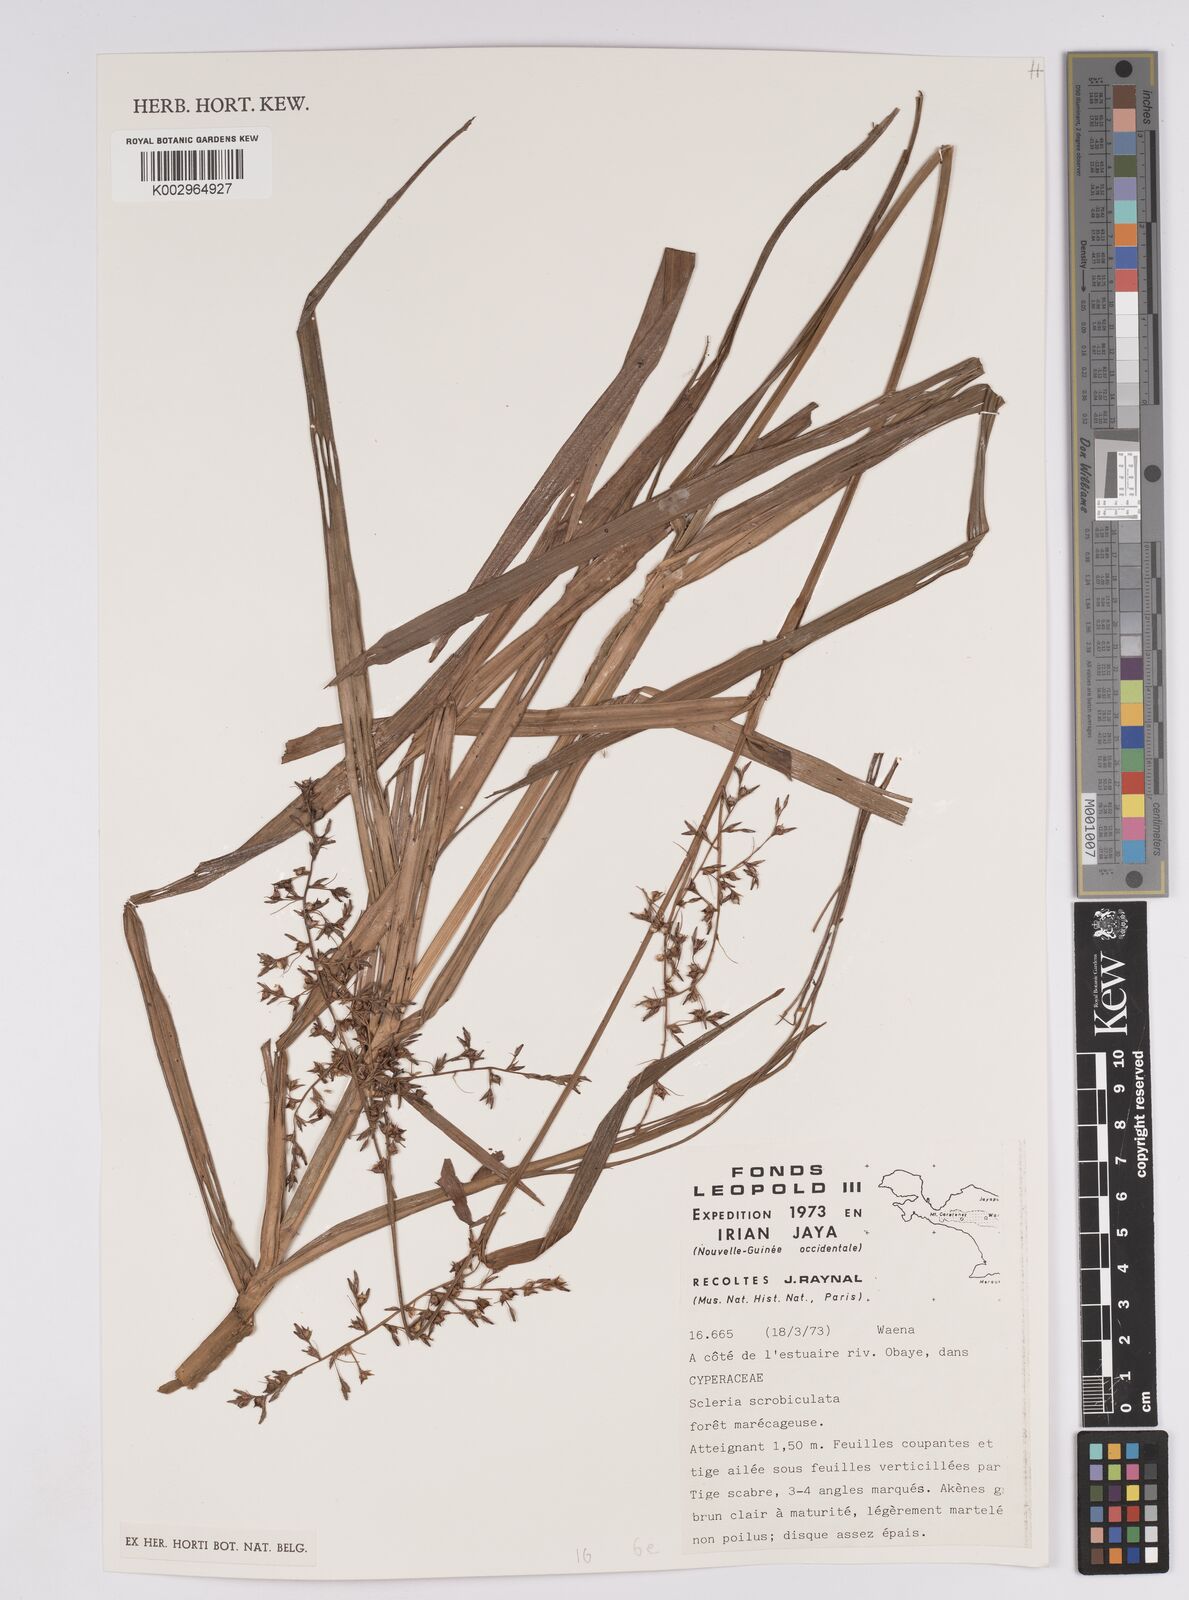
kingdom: Plantae
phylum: Tracheophyta
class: Liliopsida
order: Poales
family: Cyperaceae
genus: Scleria
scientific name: Scleria scrobiculata
